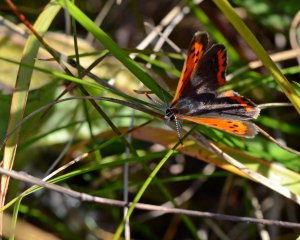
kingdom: Animalia
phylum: Arthropoda
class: Insecta
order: Lepidoptera
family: Lycaenidae
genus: Lycaena
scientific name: Lycaena phlaeas
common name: American Copper
